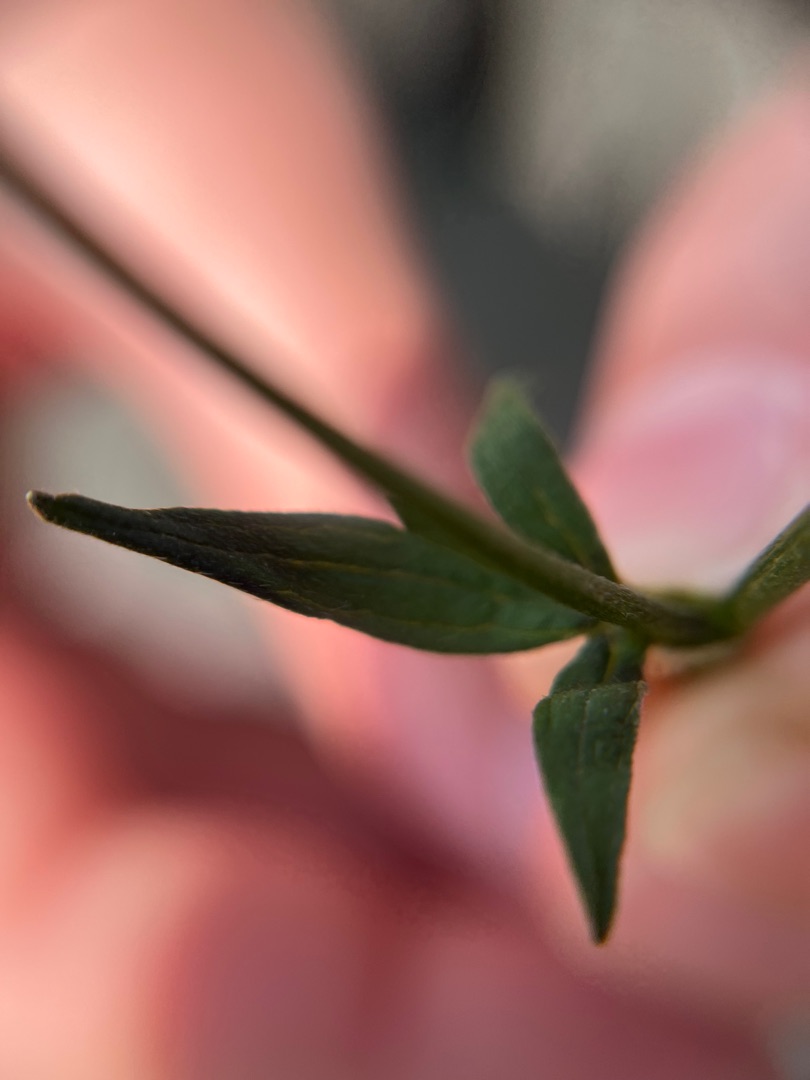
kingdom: Plantae
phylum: Tracheophyta
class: Magnoliopsida
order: Ranunculales
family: Ranunculaceae
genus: Ranunculus
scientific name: Ranunculus acris
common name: Bidende ranunkel
